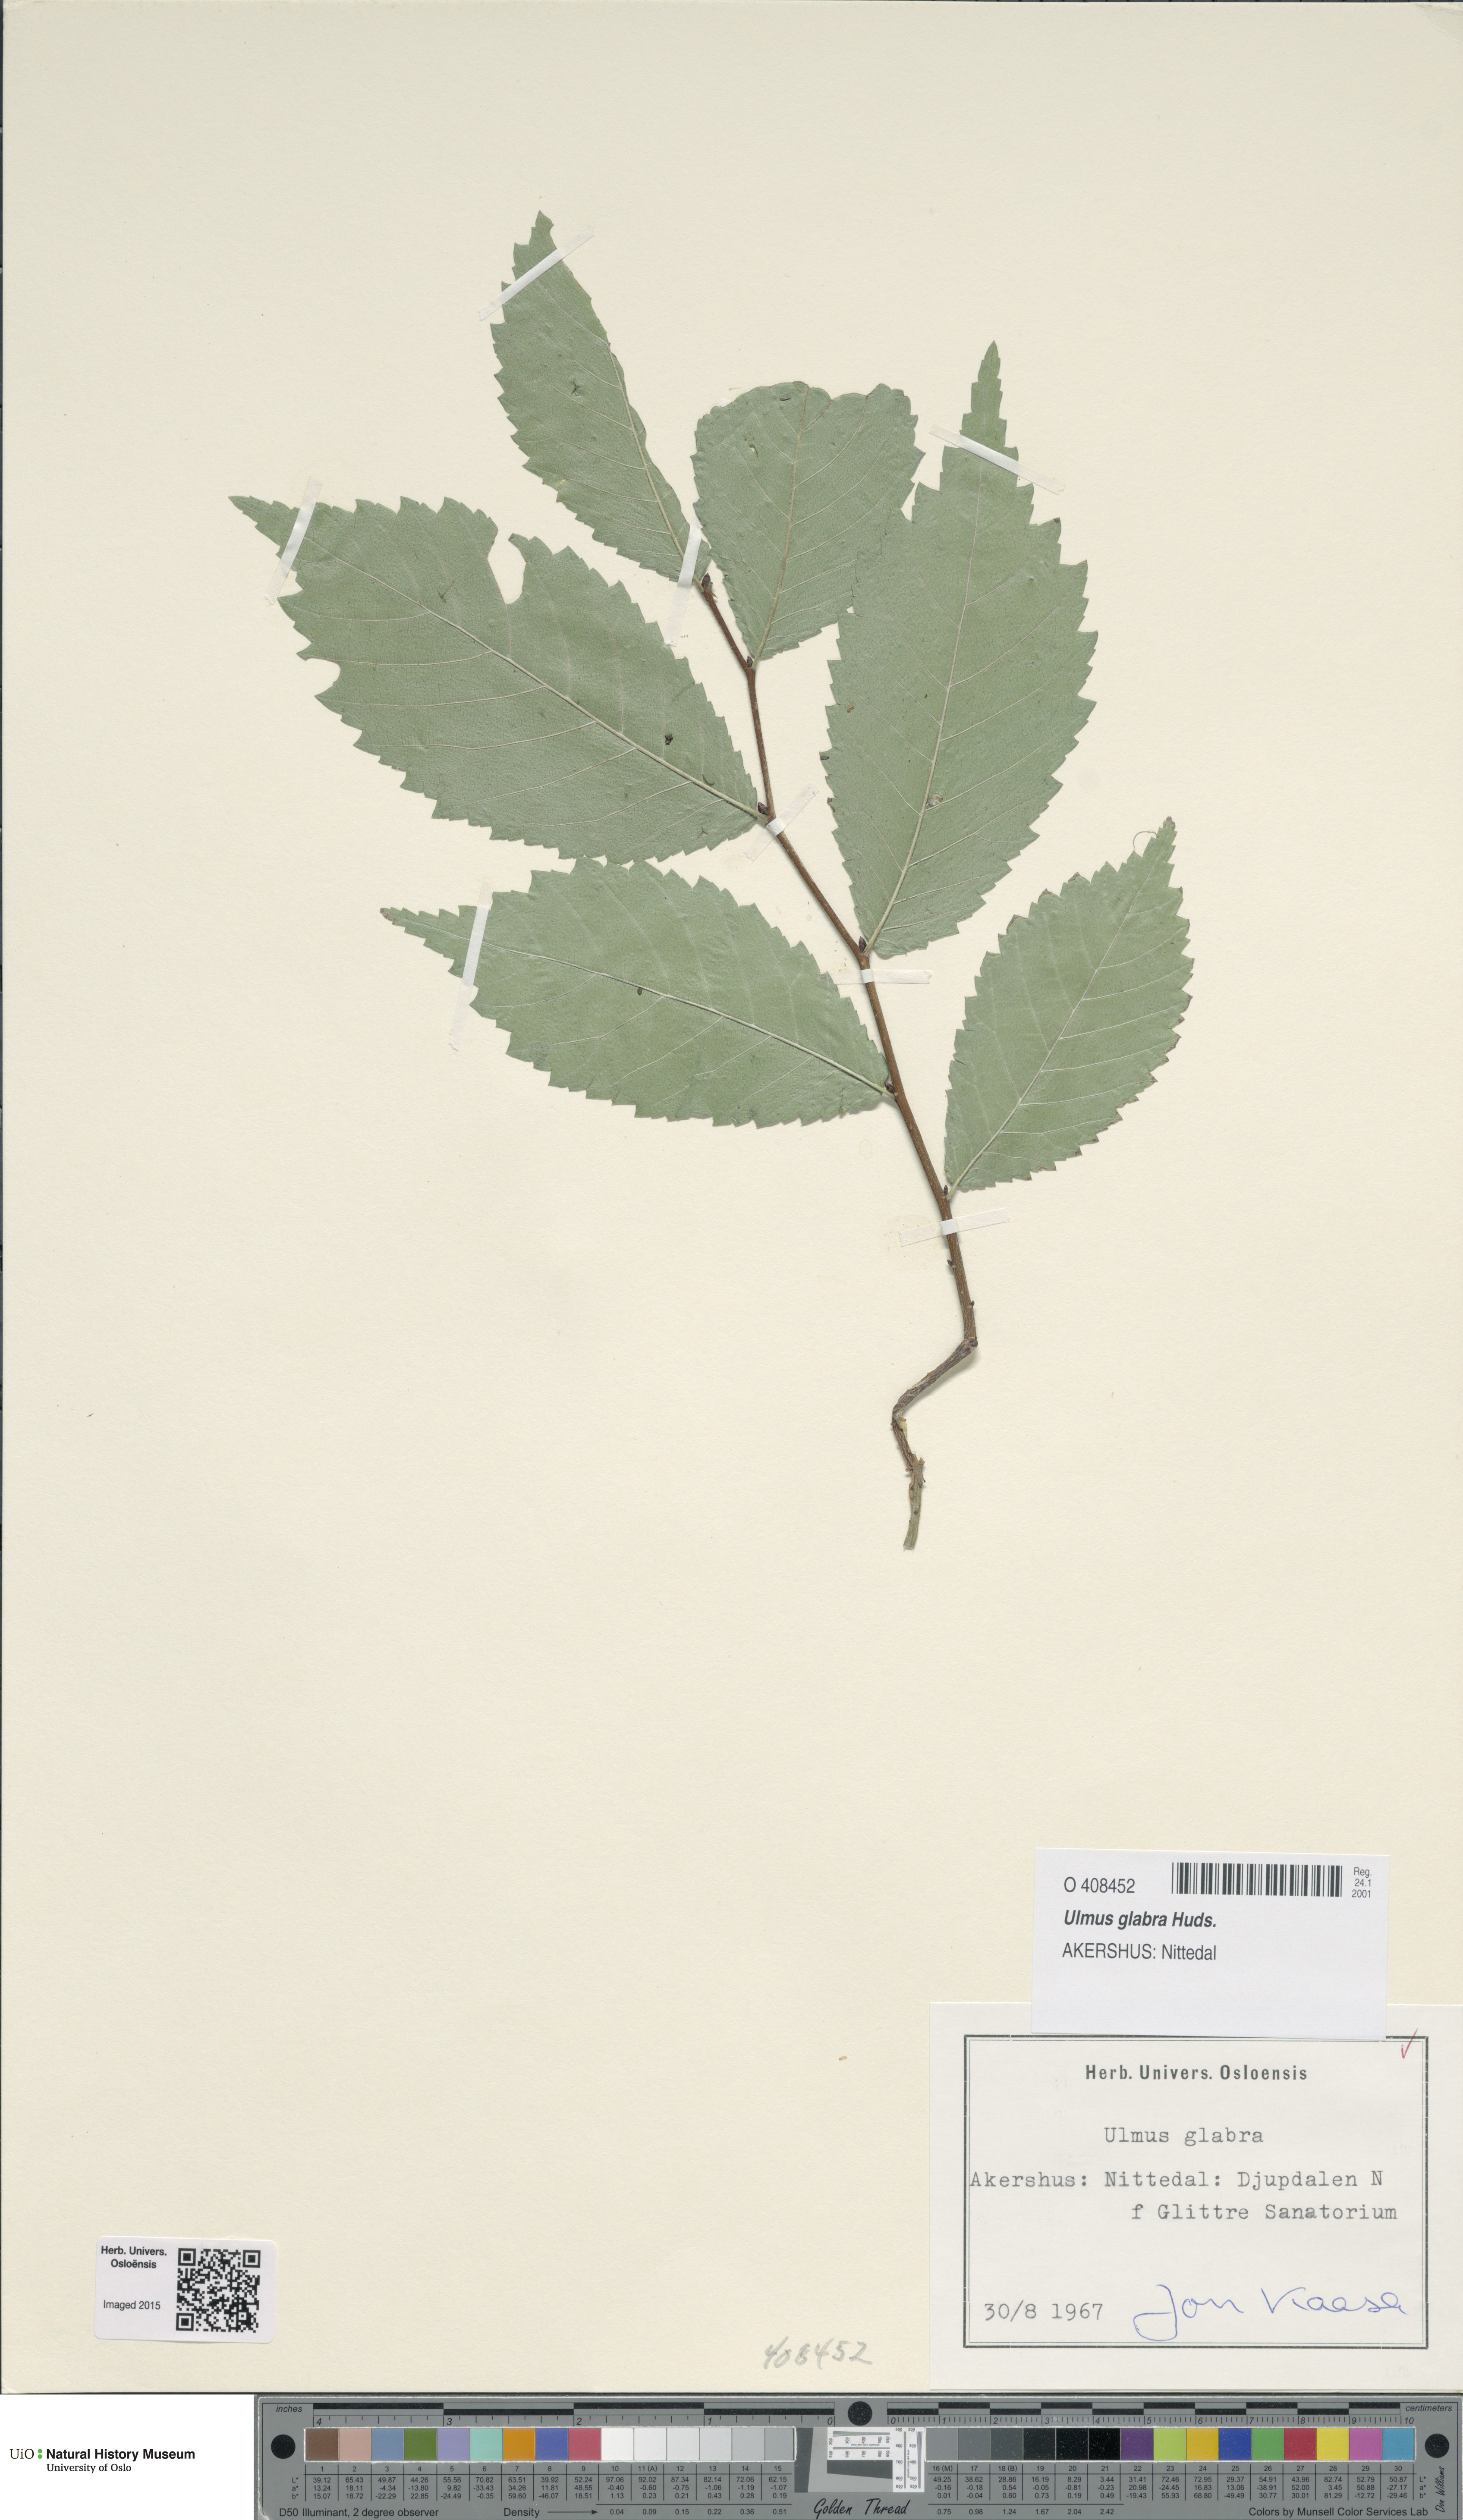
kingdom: Plantae
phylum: Tracheophyta
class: Magnoliopsida
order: Rosales
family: Ulmaceae
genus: Ulmus
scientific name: Ulmus glabra
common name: Wych elm
